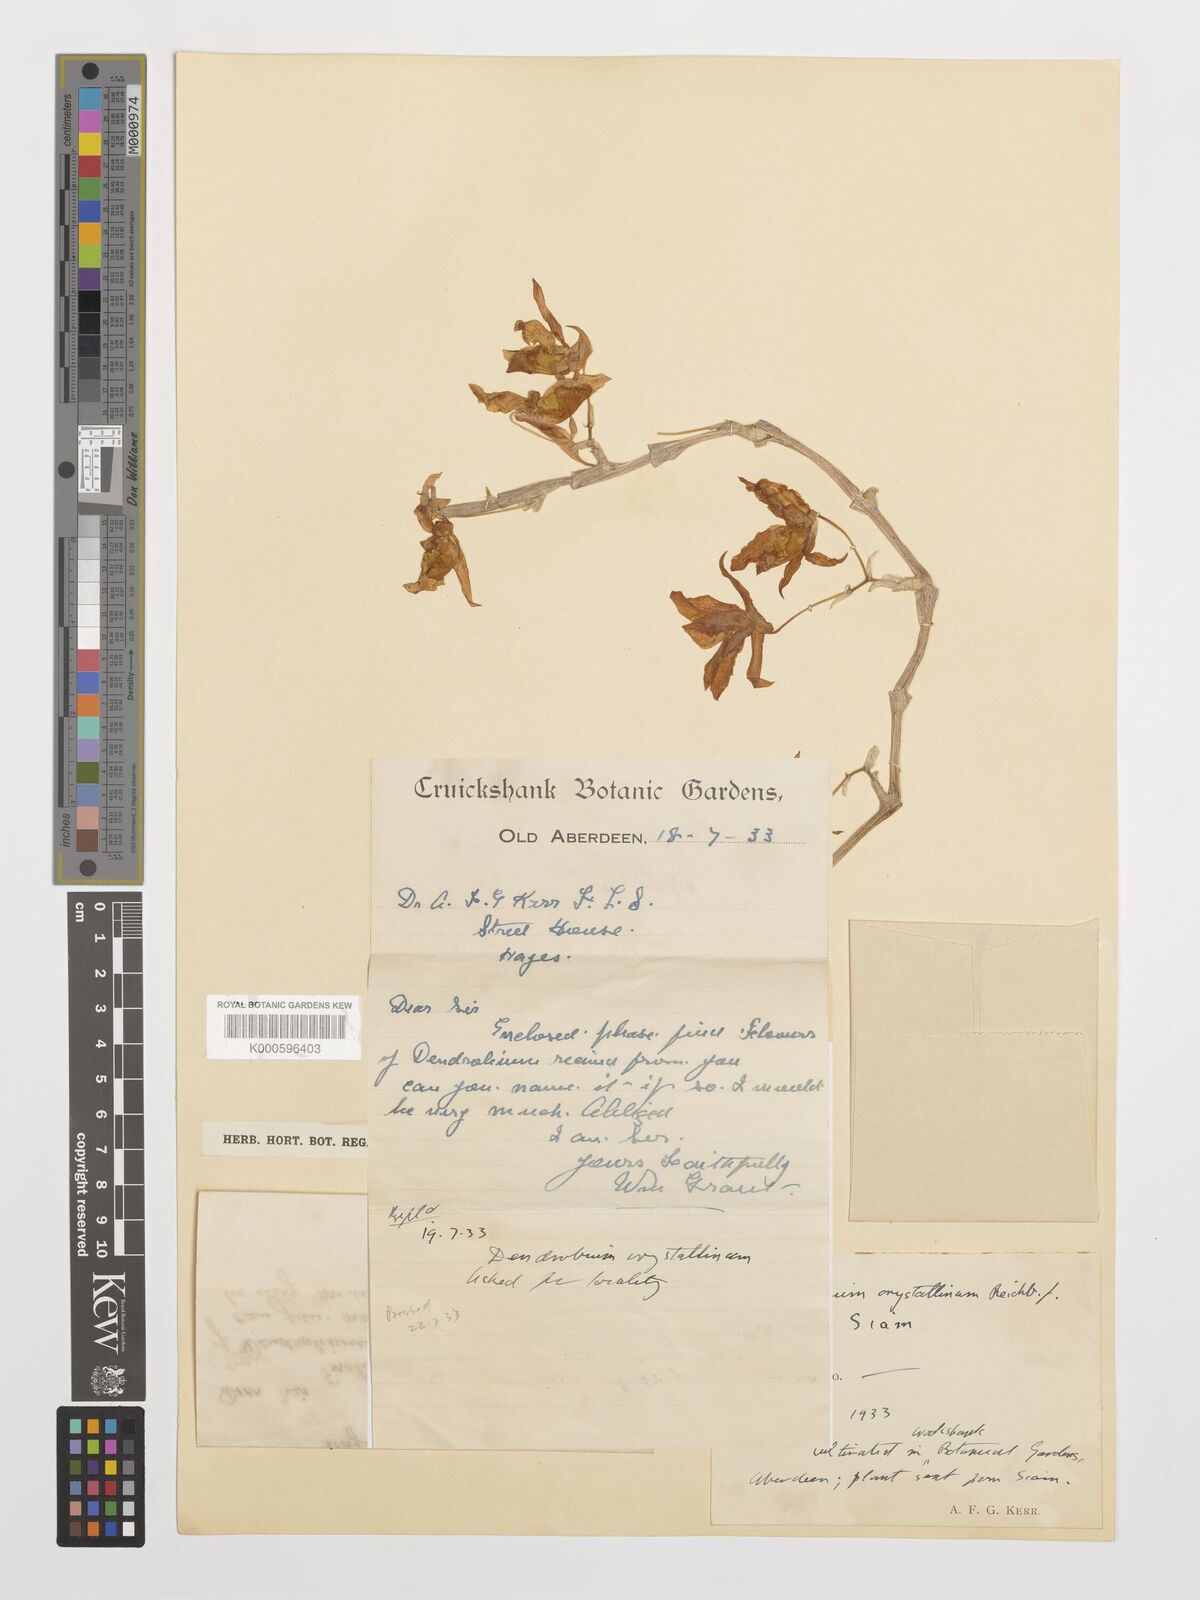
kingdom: Plantae
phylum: Tracheophyta
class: Liliopsida
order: Asparagales
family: Orchidaceae
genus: Dendrobium
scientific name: Dendrobium crystallinum
